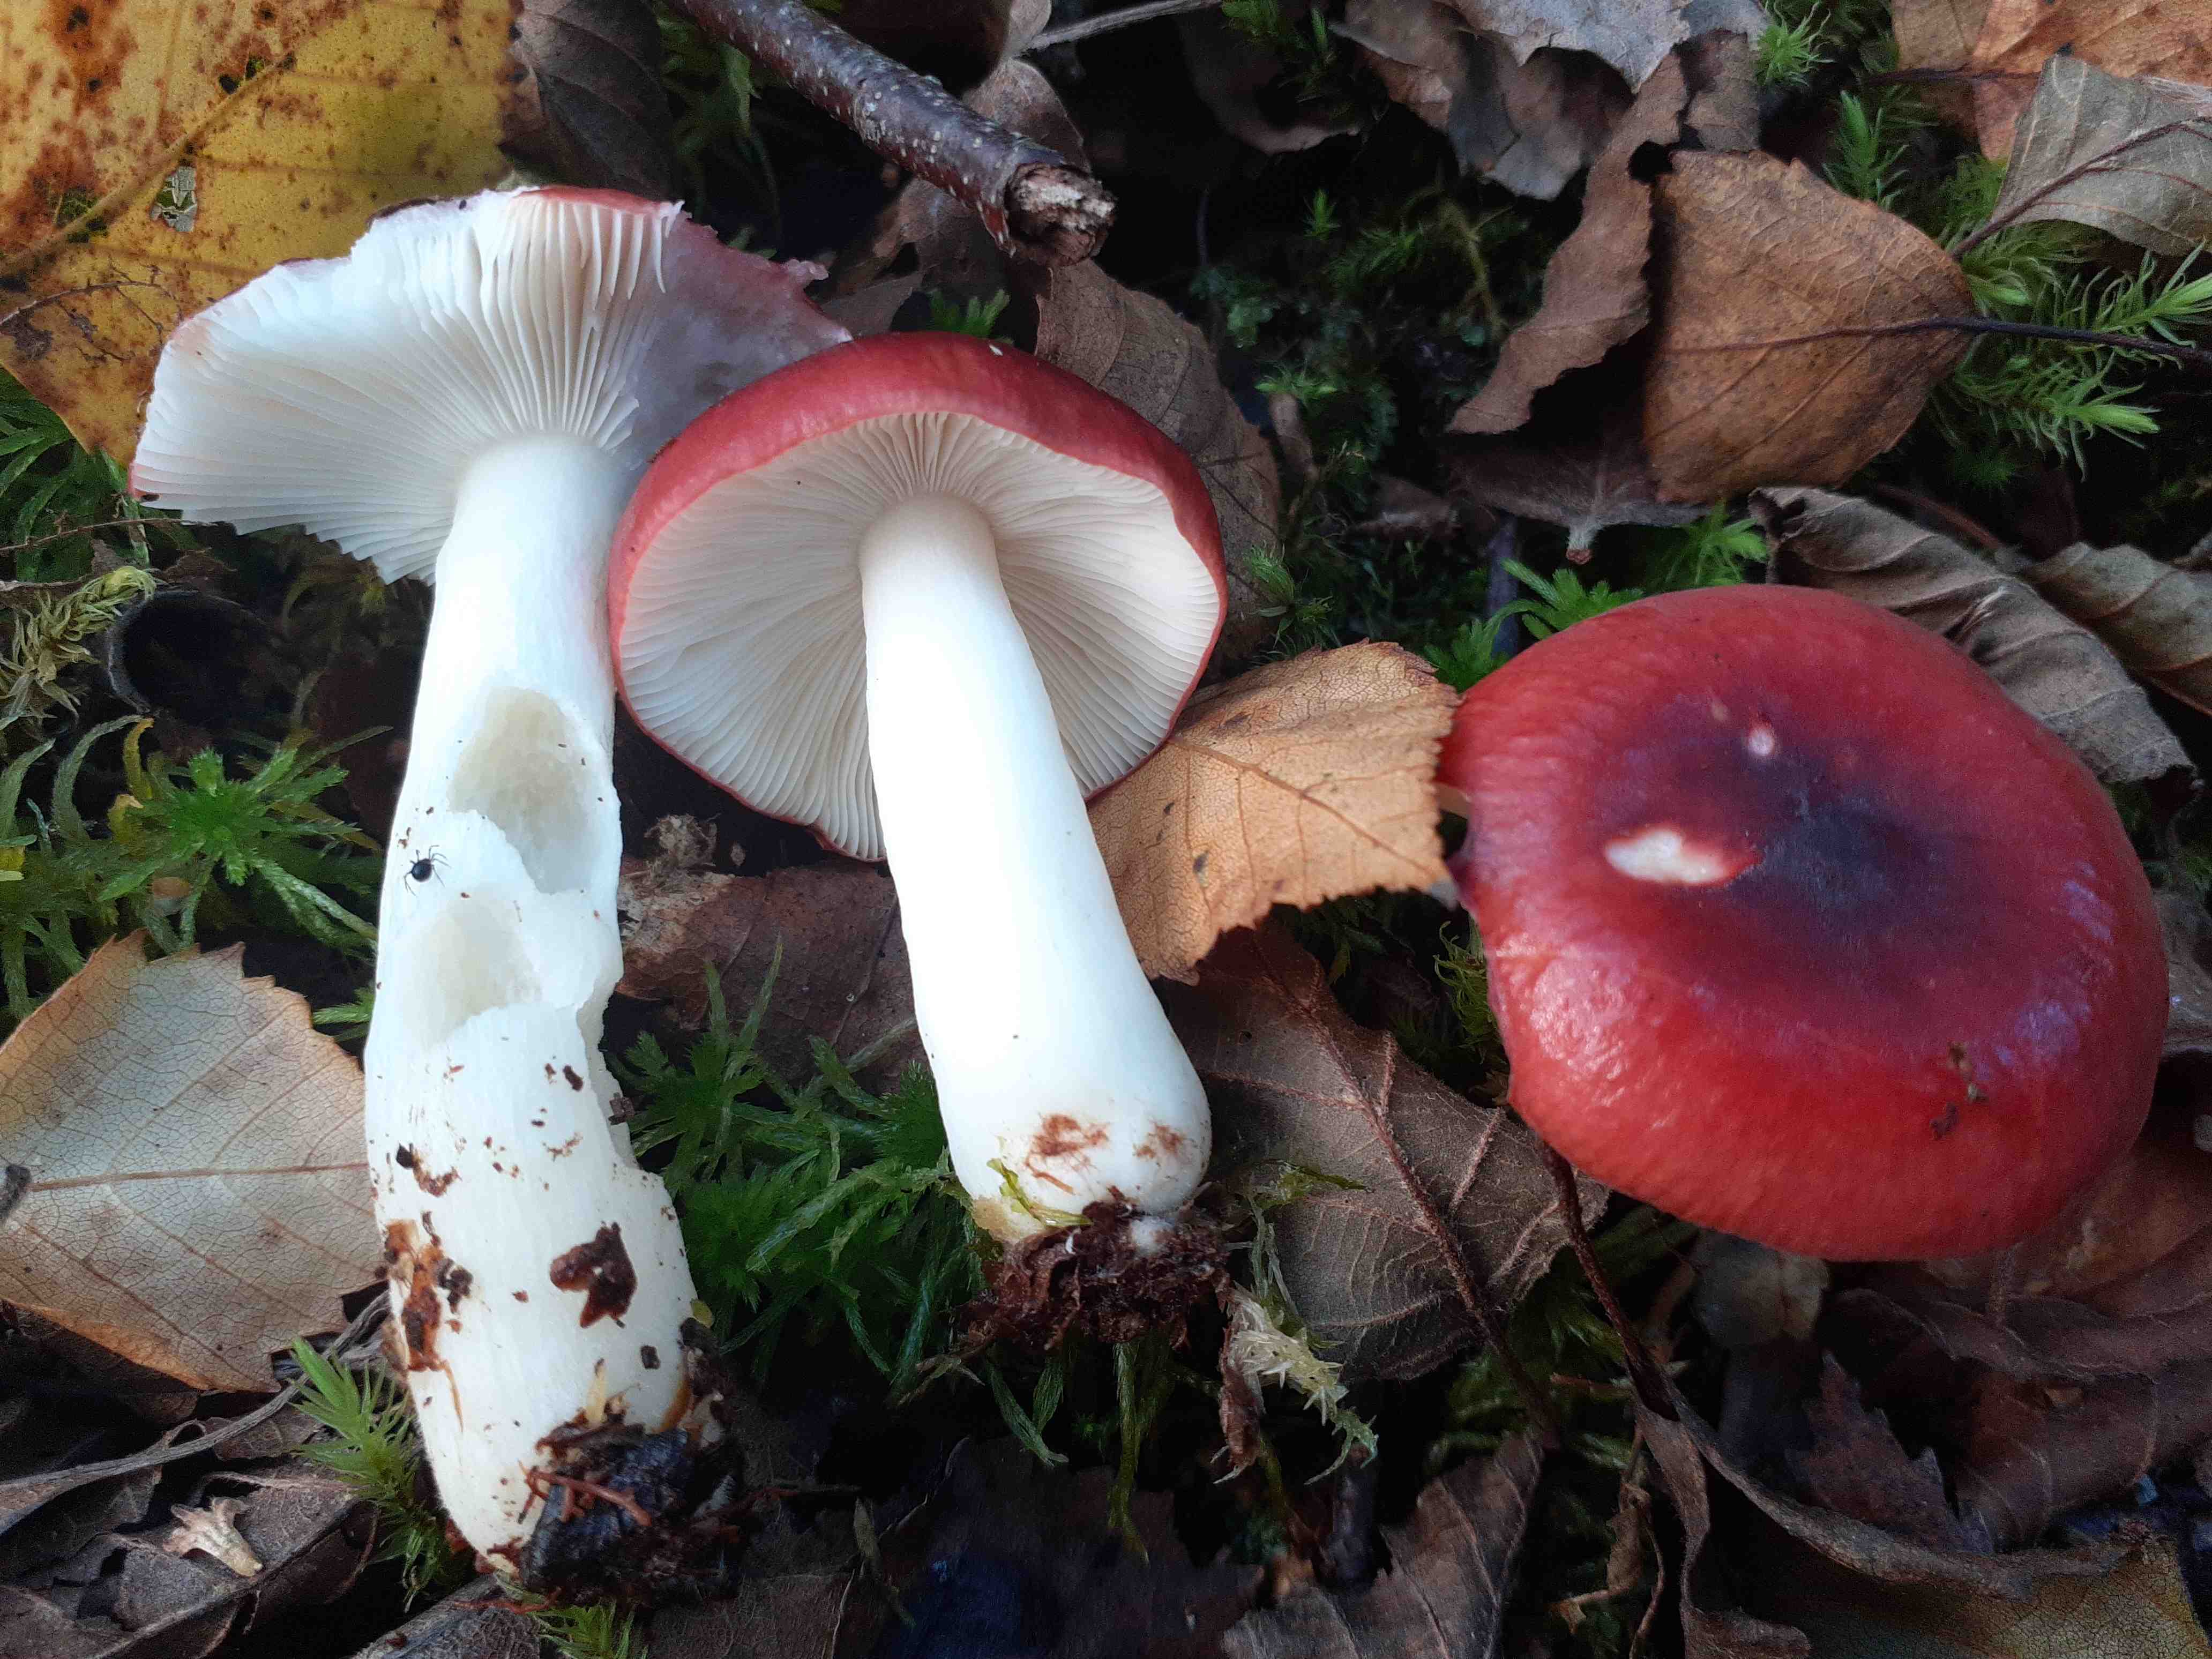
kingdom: Fungi
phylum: Basidiomycota
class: Agaricomycetes
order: Russulales
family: Russulaceae
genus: Russula
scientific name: Russula aquosa
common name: vand-skørhat
